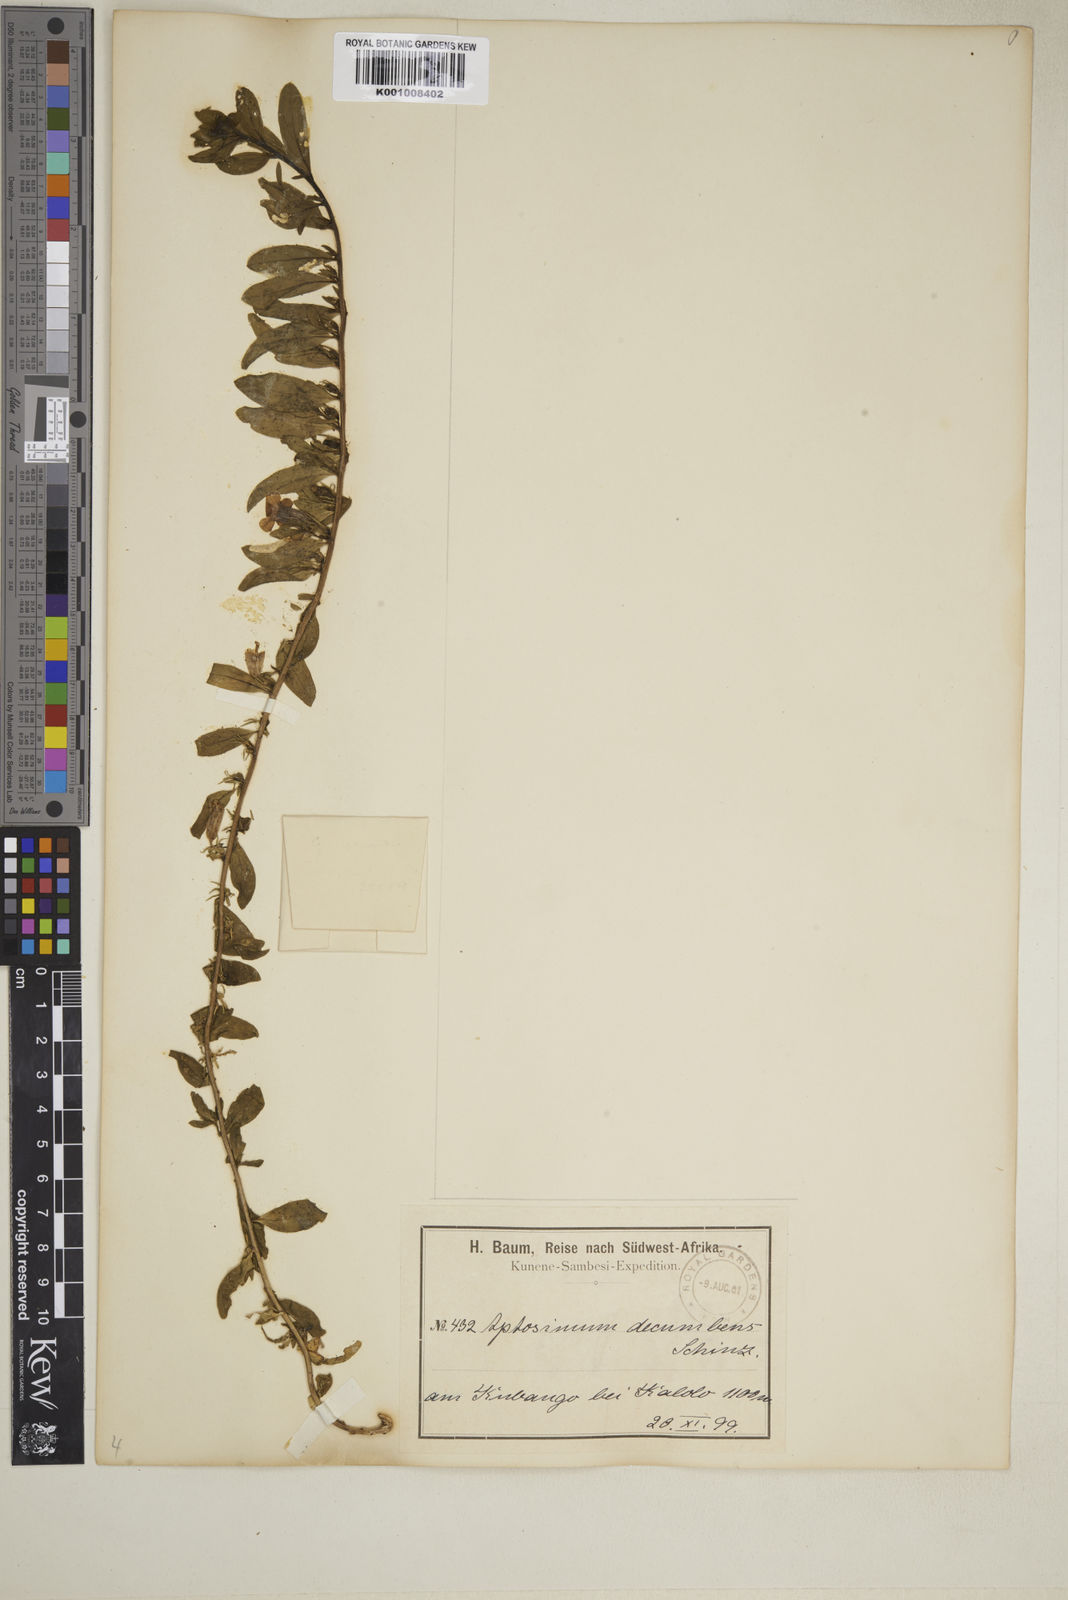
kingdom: Plantae
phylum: Tracheophyta
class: Magnoliopsida
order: Lamiales
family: Scrophulariaceae
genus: Aptosimum
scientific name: Aptosimum decumbens
